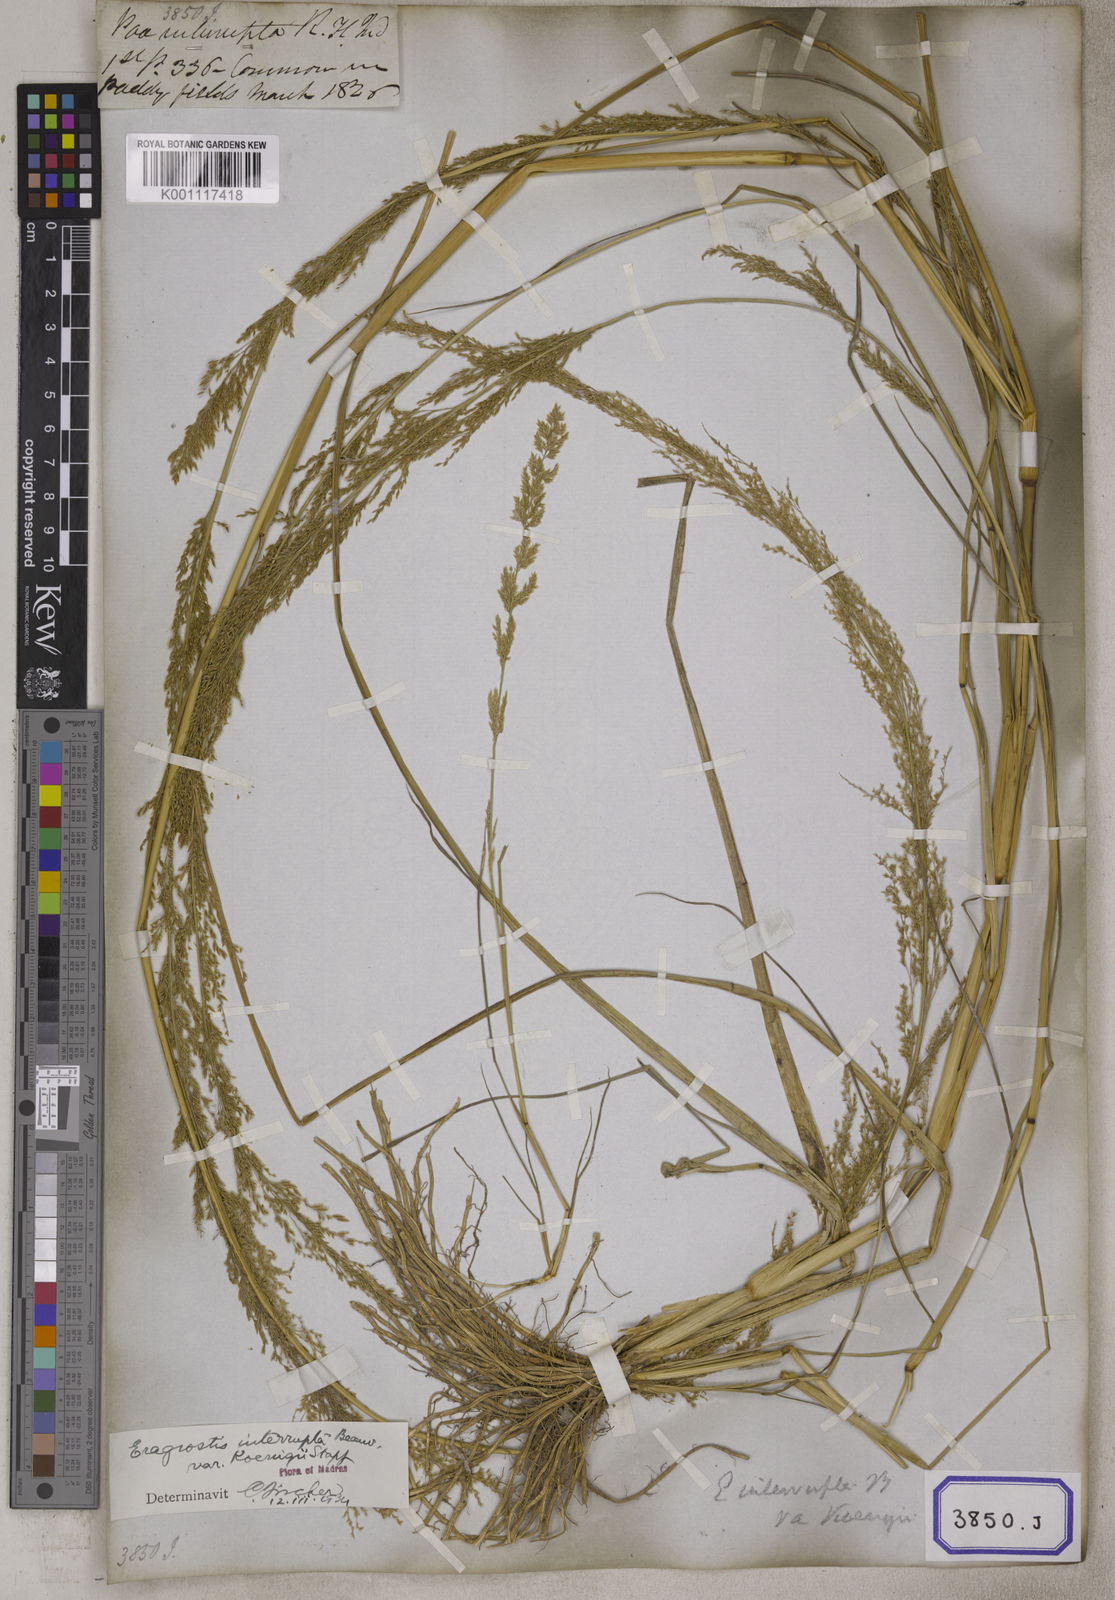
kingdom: Plantae
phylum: Tracheophyta
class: Liliopsida
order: Poales
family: Poaceae
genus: Eragrostis
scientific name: Eragrostis
